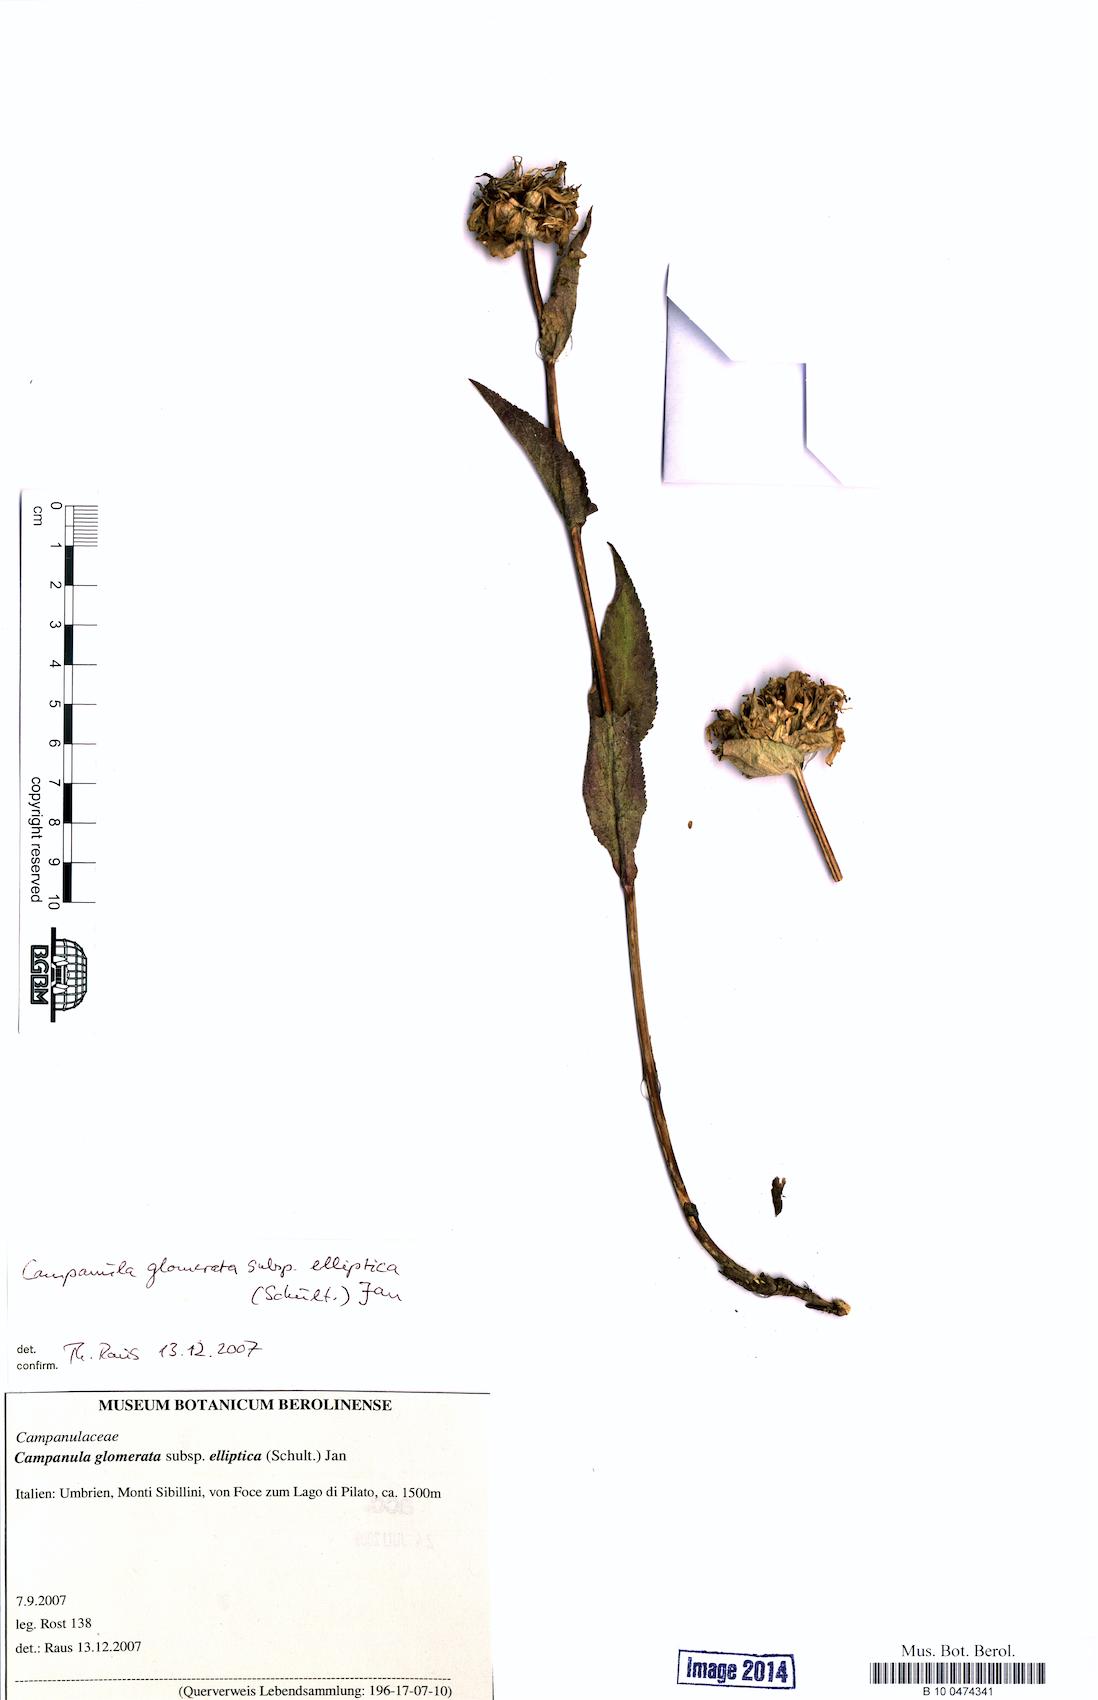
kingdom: Plantae
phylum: Tracheophyta
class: Magnoliopsida
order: Asterales
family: Campanulaceae
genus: Campanula
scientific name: Campanula glomerata
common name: Clustered bellflower
